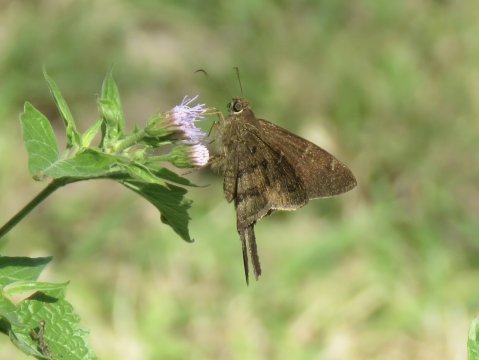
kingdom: Animalia
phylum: Arthropoda
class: Insecta
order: Lepidoptera
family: Hesperiidae
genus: Urbanus
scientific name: Urbanus procne
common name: Brown Longtail
